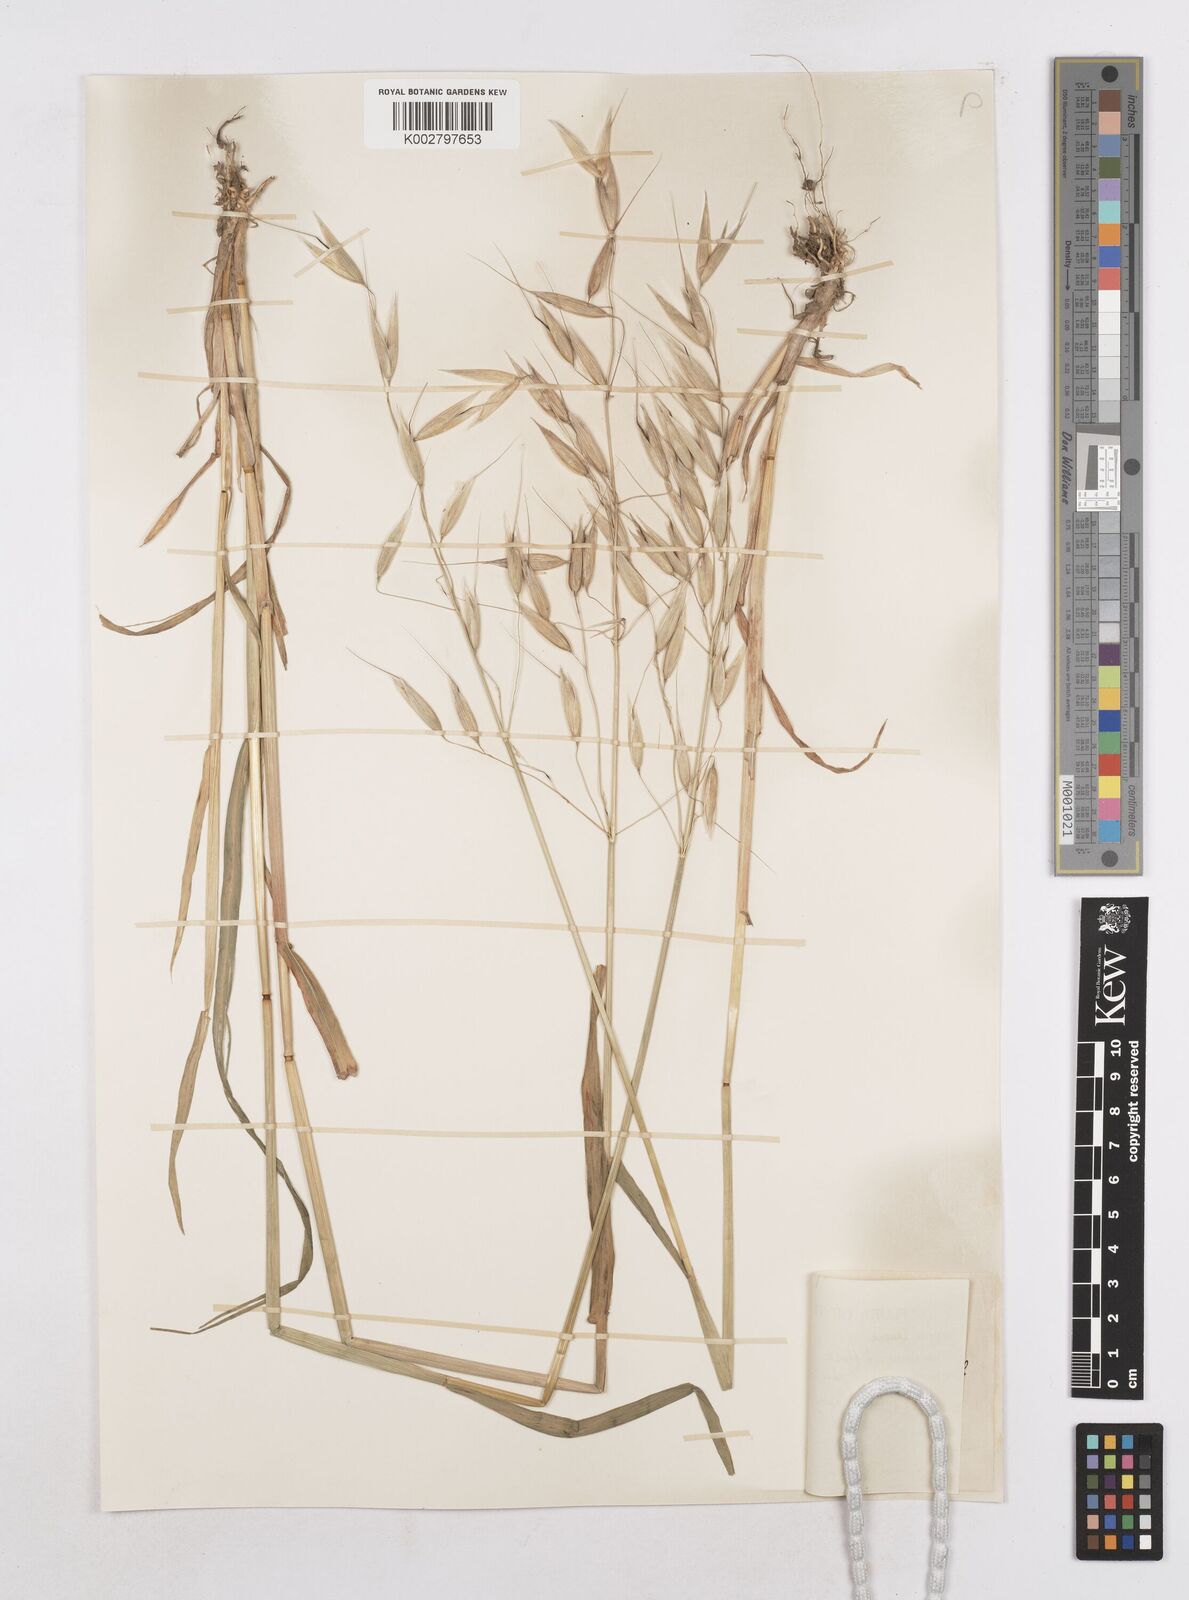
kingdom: Plantae
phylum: Tracheophyta
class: Liliopsida
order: Poales
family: Poaceae
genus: Avena
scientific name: Avena byzantina
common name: Algerian oat
